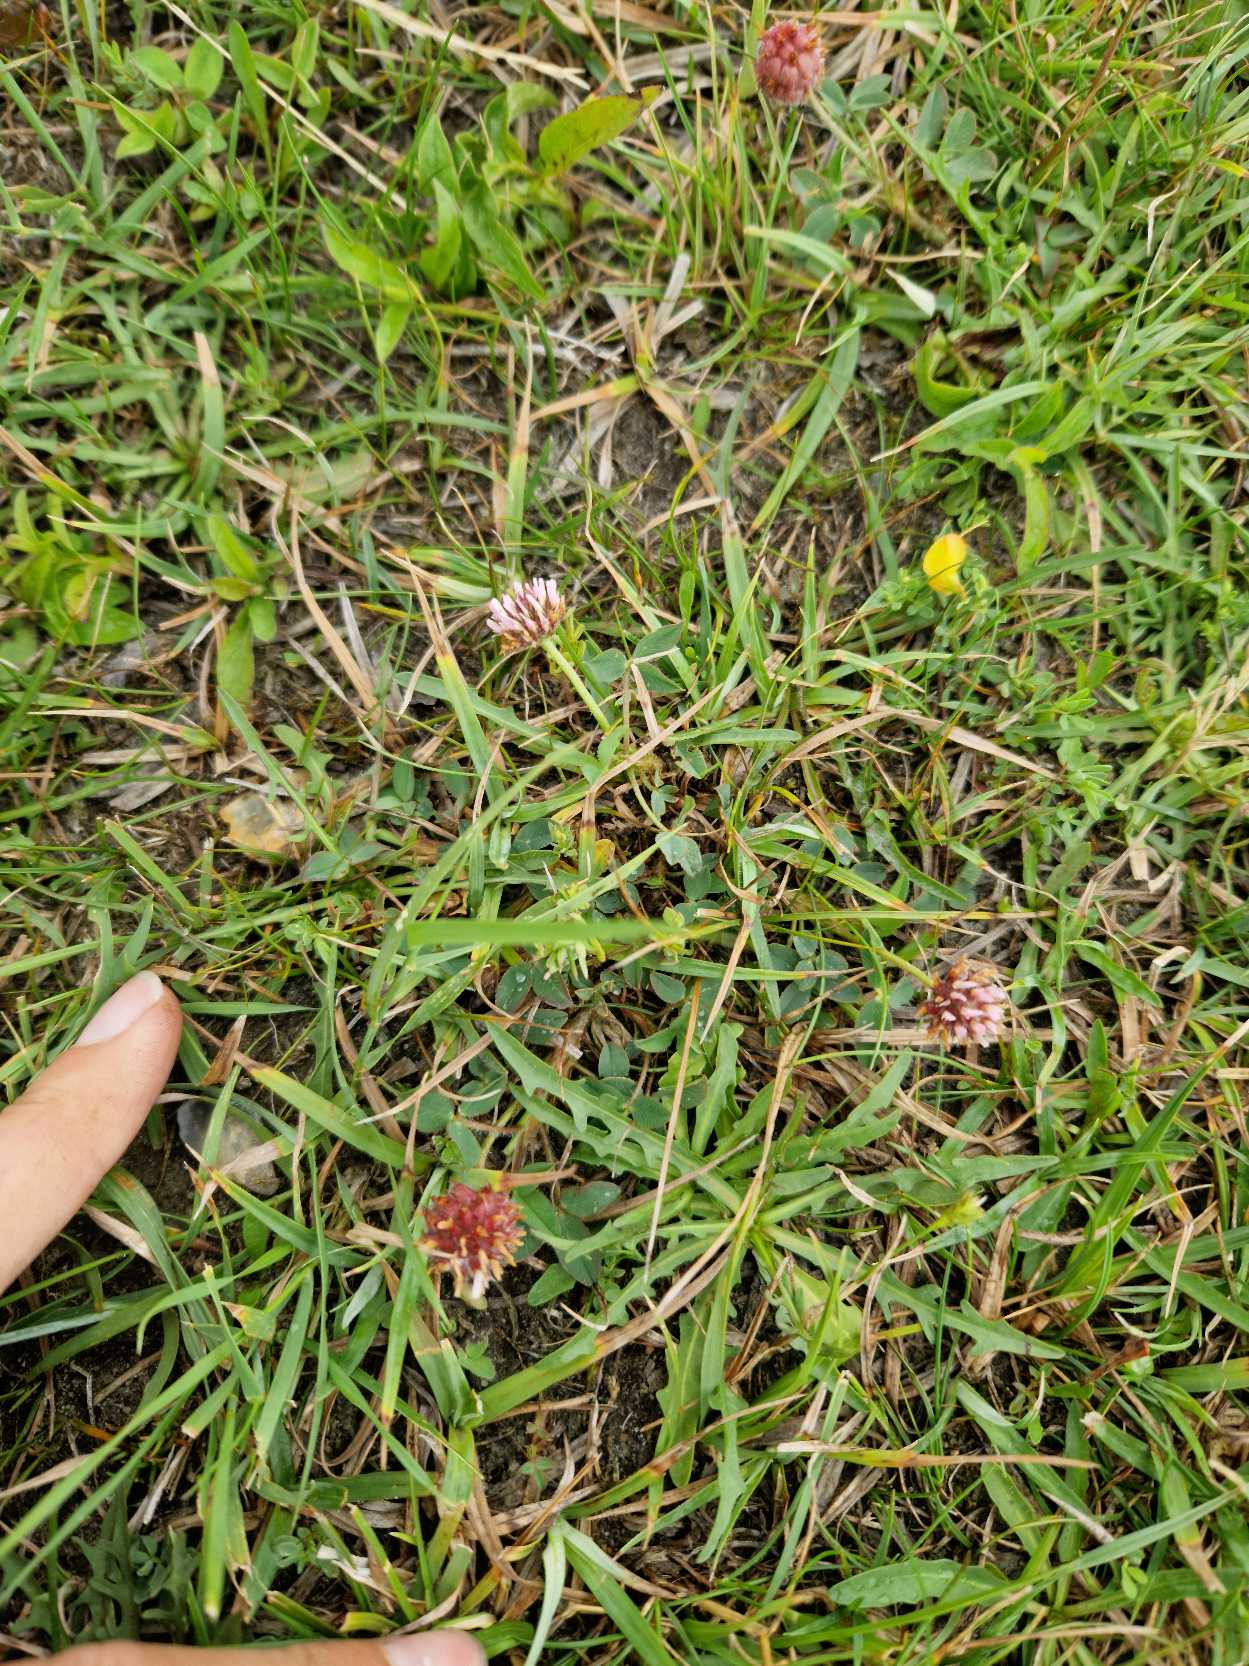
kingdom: Plantae
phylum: Tracheophyta
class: Magnoliopsida
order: Fabales
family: Fabaceae
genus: Trifolium
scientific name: Trifolium fragiferum
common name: Jordbær-kløver
